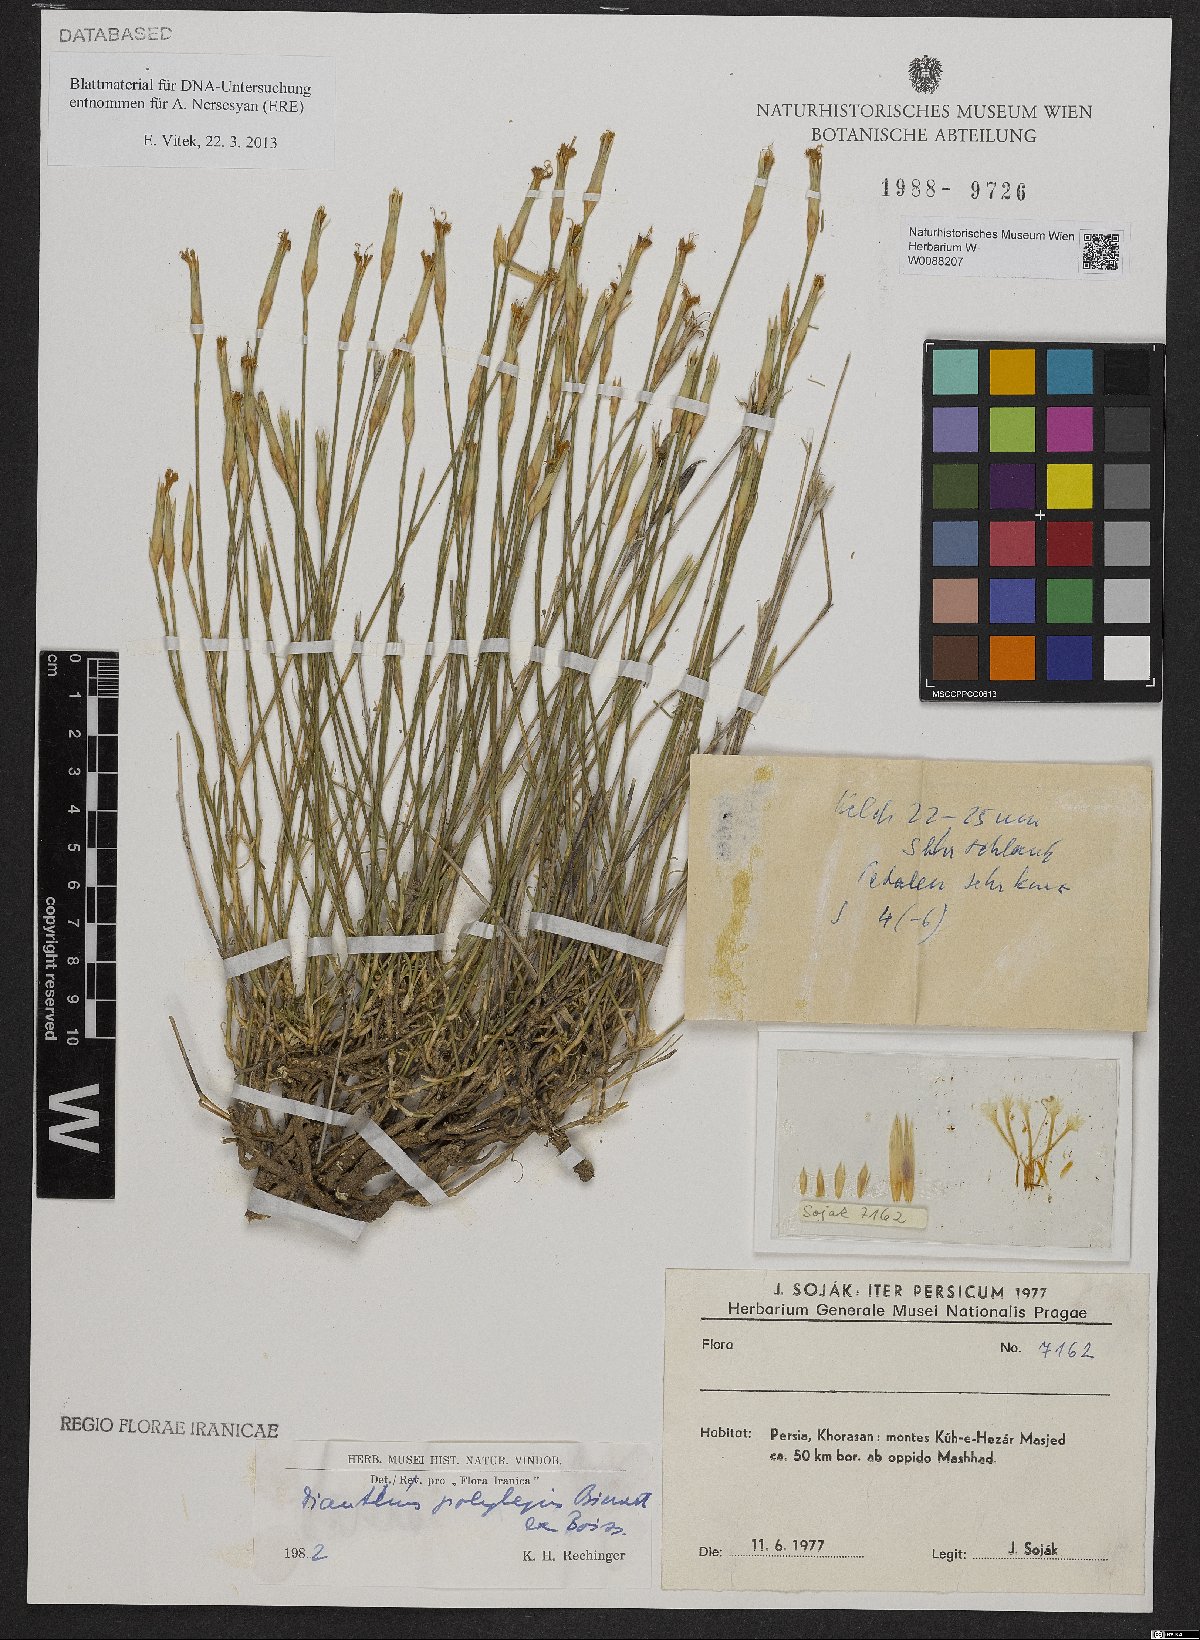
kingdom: Plantae
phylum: Tracheophyta
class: Magnoliopsida
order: Caryophyllales
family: Caryophyllaceae
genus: Dianthus
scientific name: Dianthus polylepis
